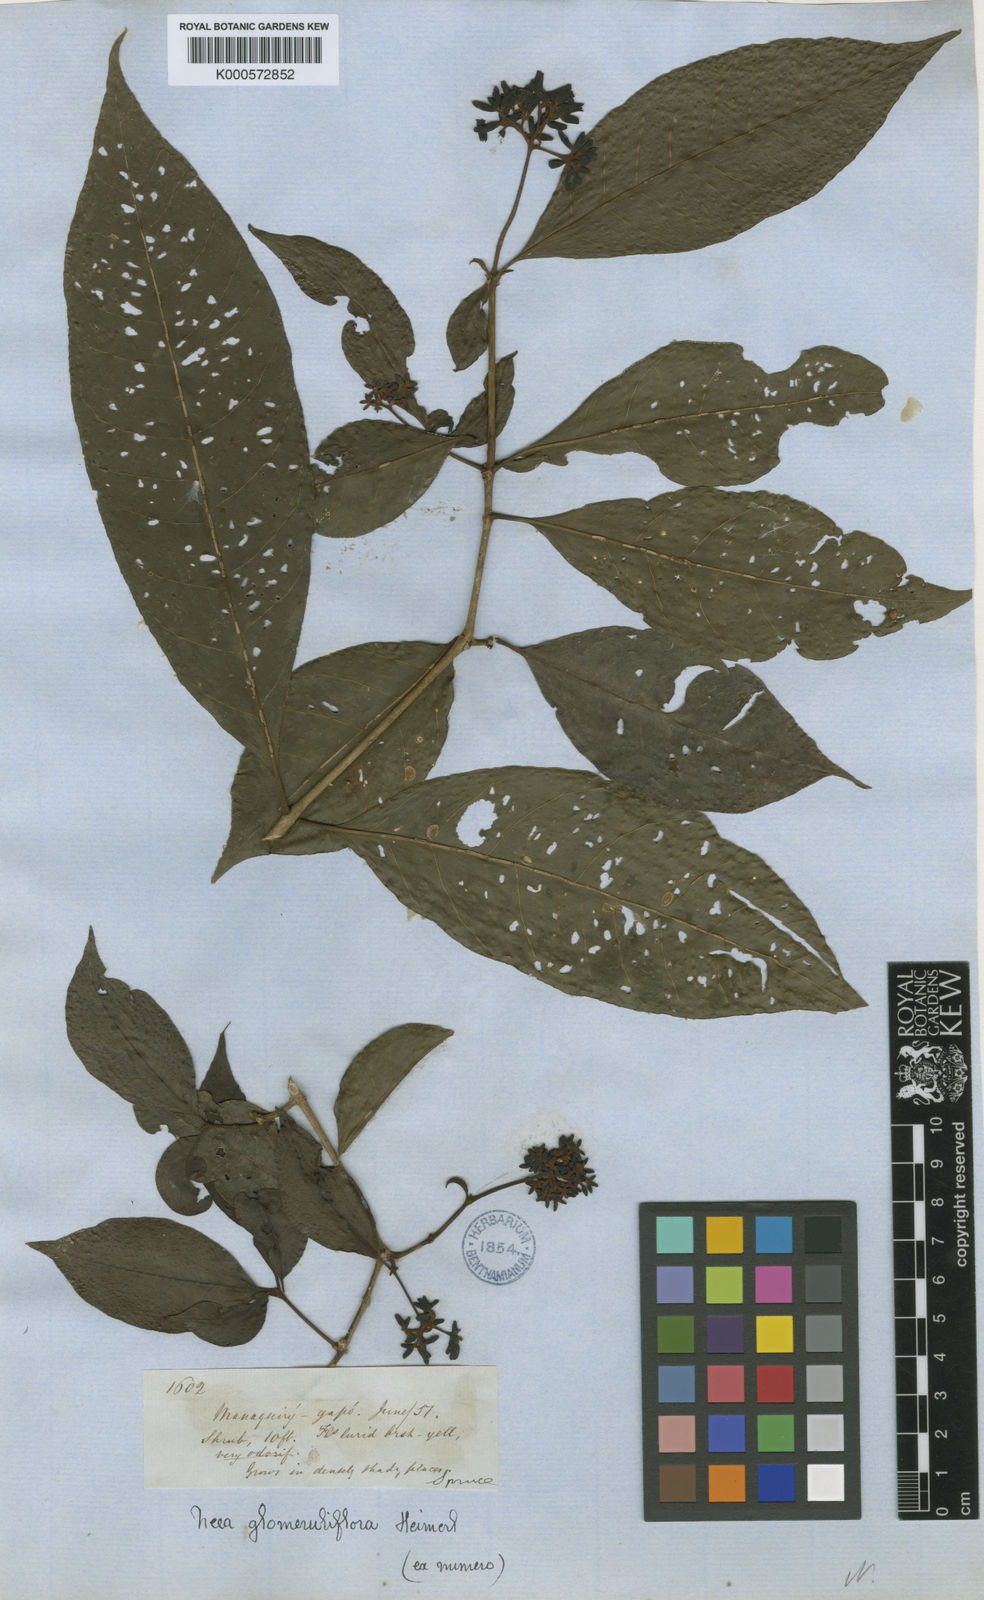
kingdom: Plantae
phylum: Tracheophyta
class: Magnoliopsida
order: Caryophyllales
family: Nyctaginaceae
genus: Neea
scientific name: Neea ovalifolia
